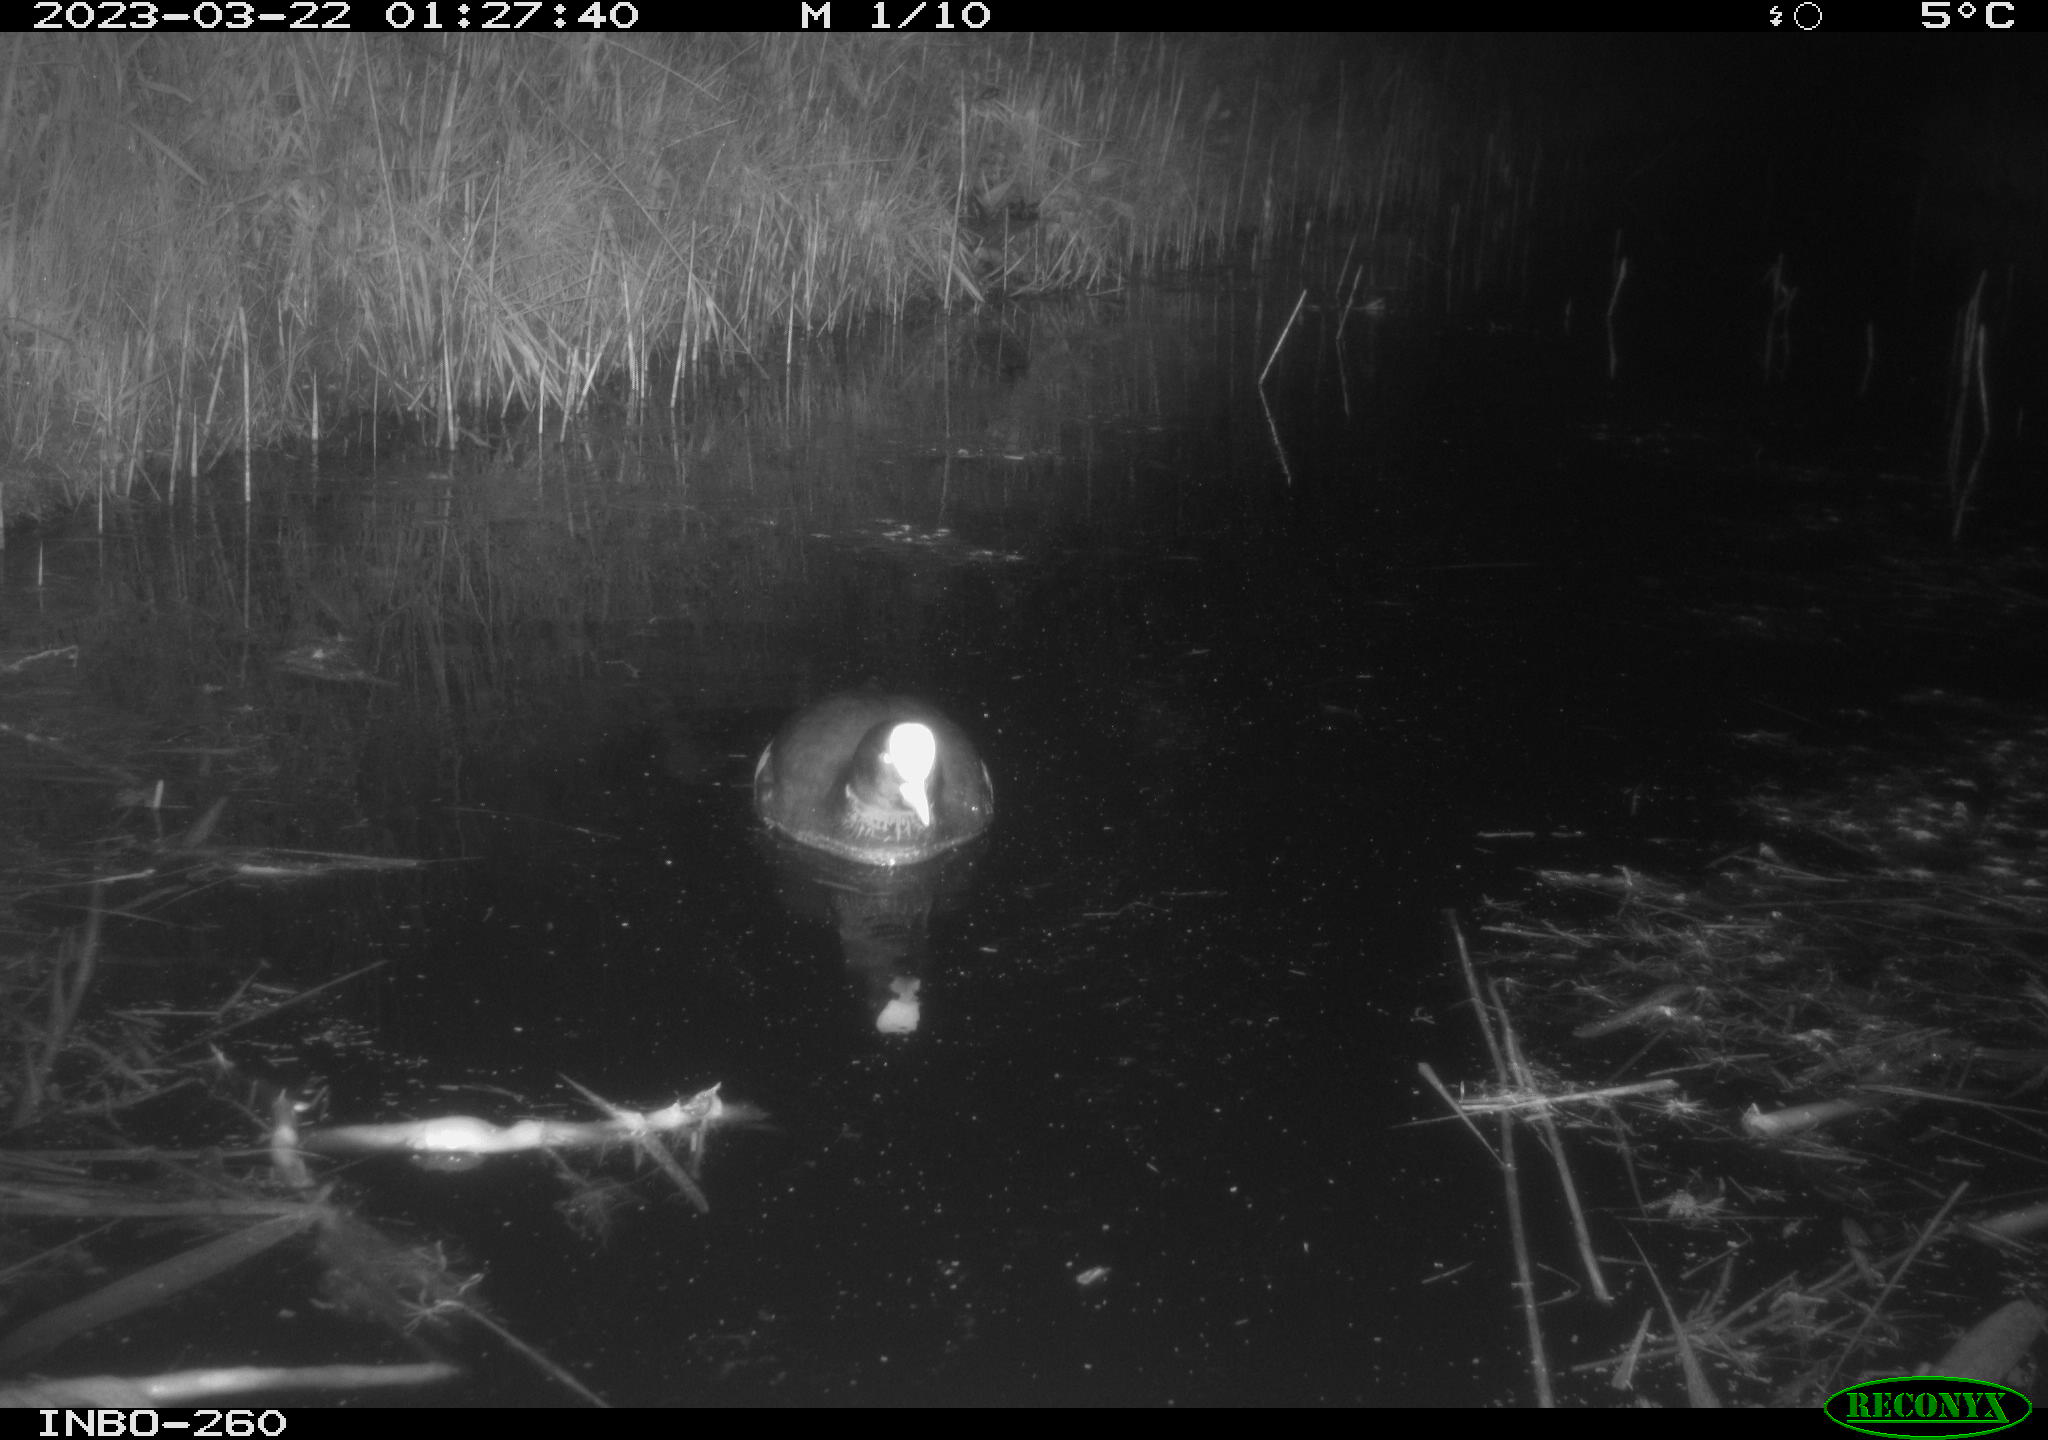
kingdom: Animalia
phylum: Chordata
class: Aves
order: Gruiformes
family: Rallidae
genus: Fulica
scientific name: Fulica atra
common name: Eurasian coot
